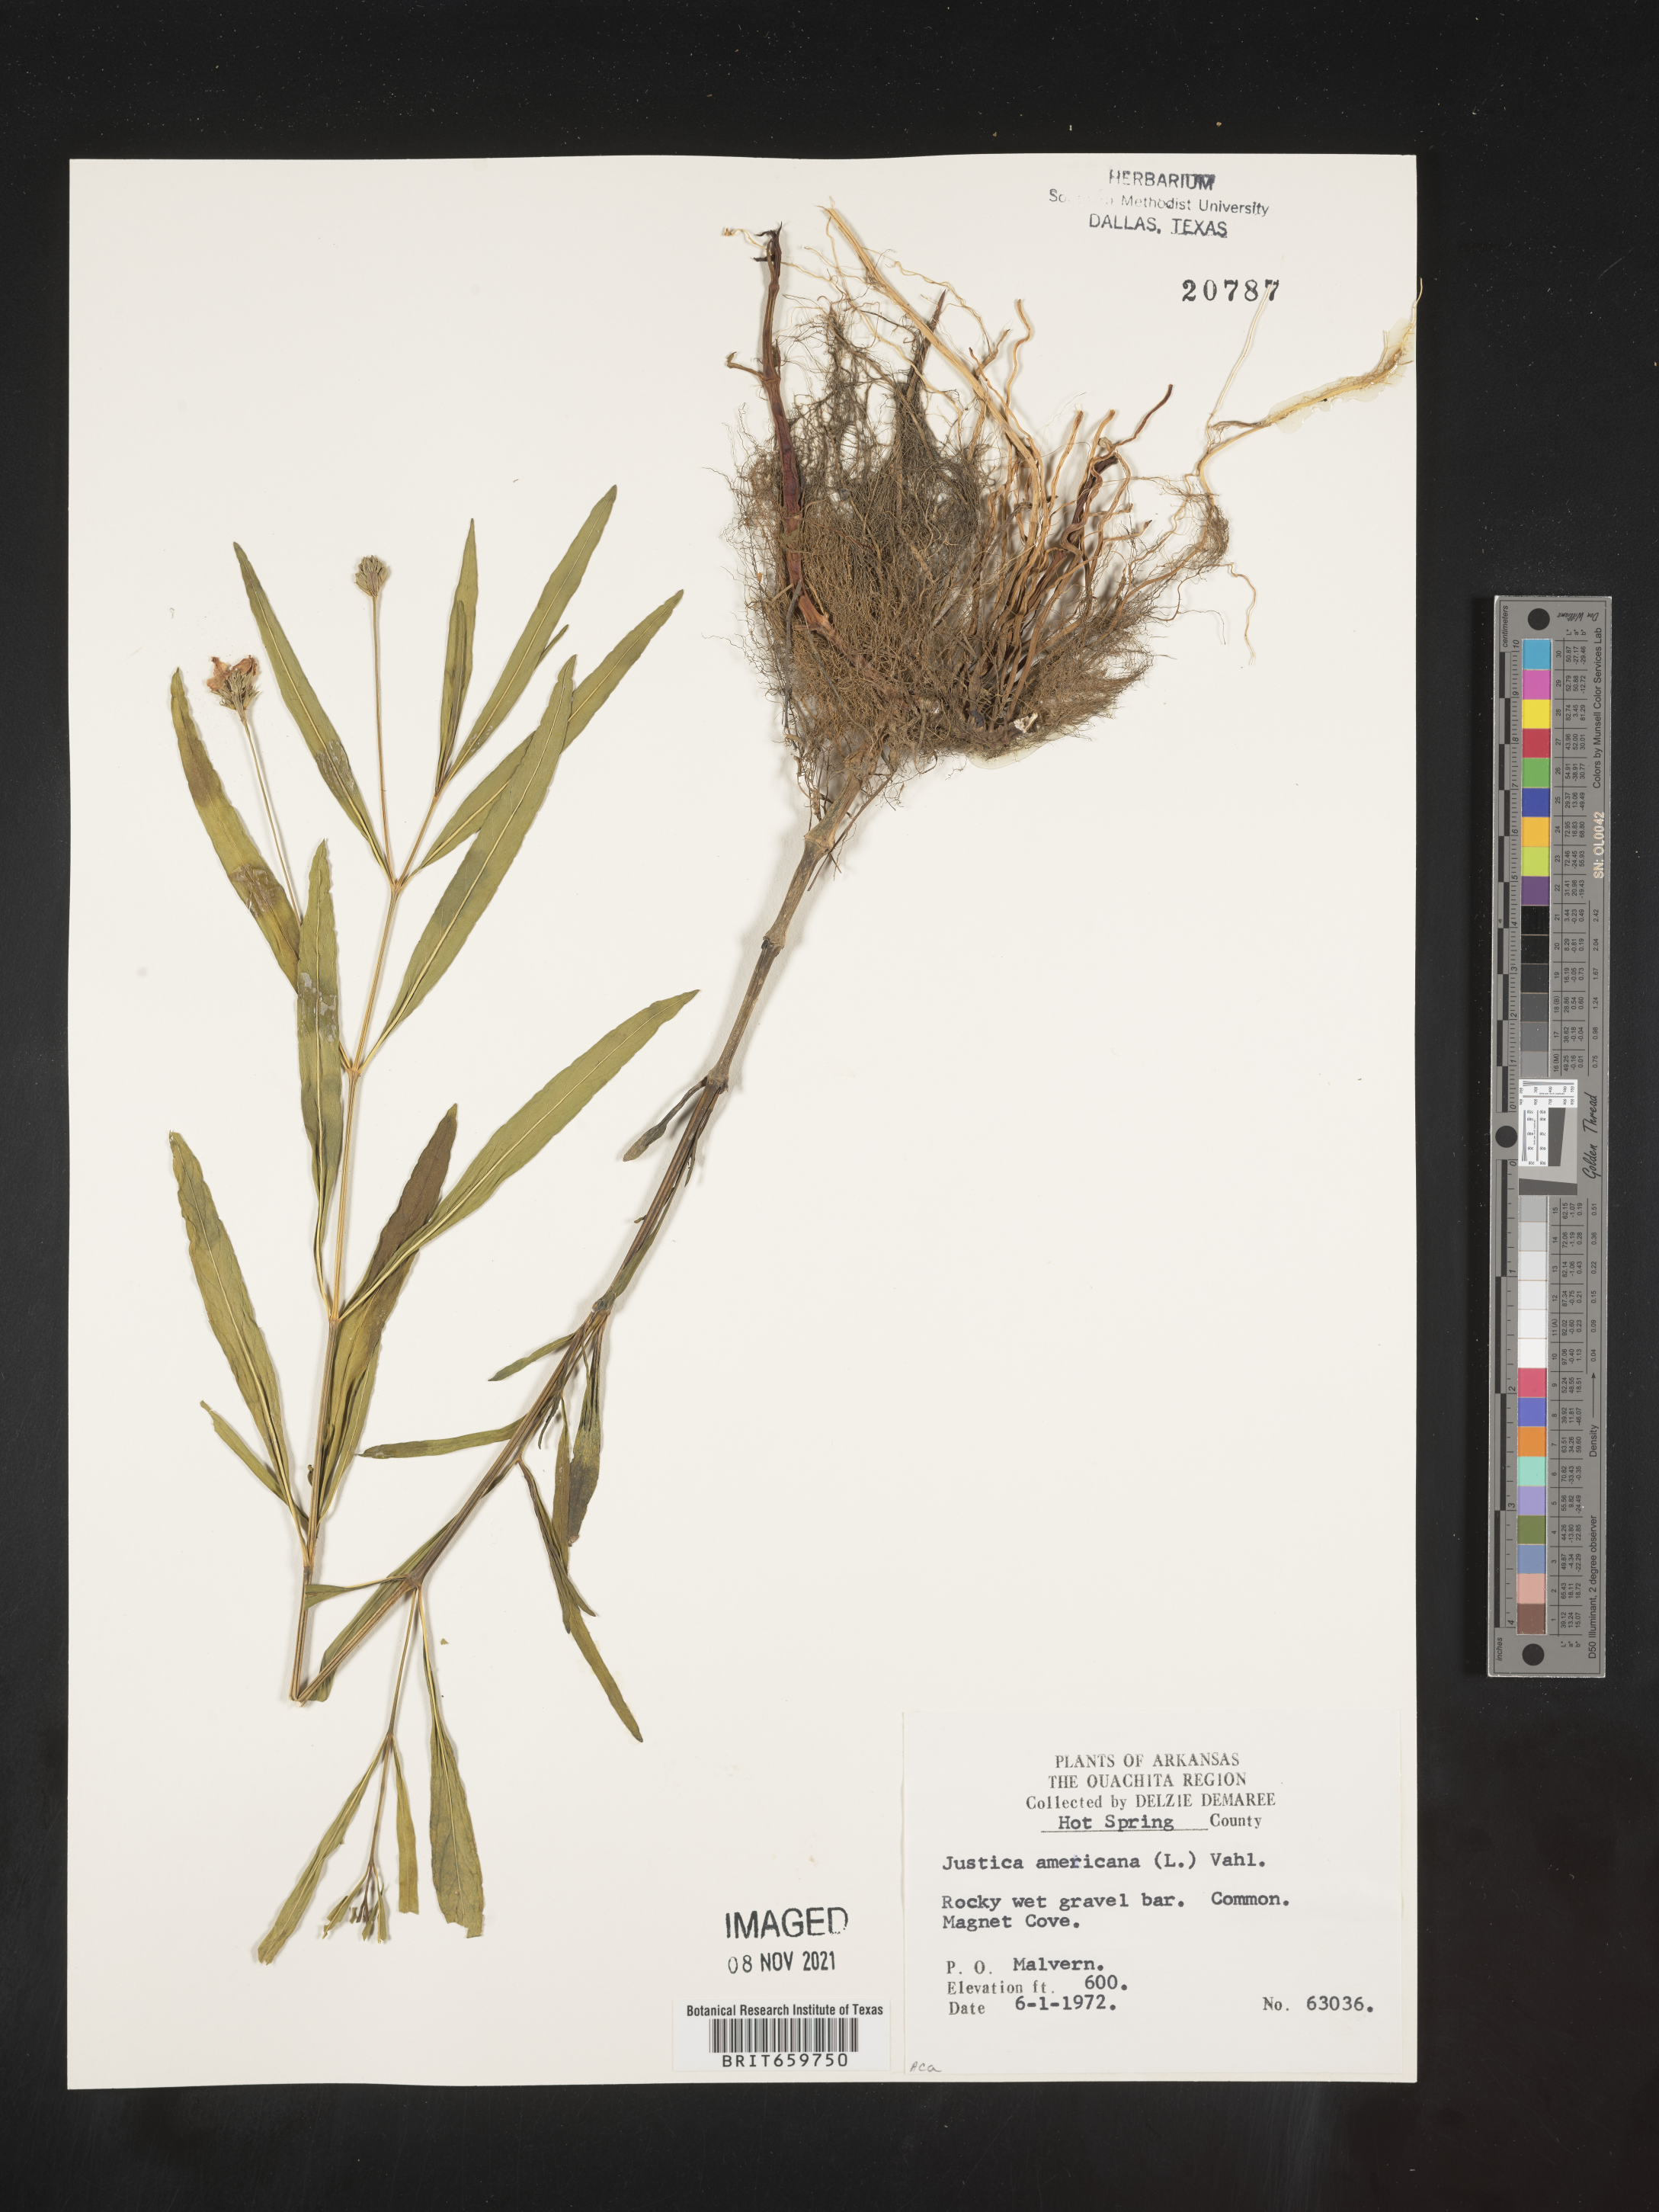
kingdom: Plantae
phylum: Tracheophyta
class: Magnoliopsida
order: Lamiales
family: Acanthaceae
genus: Dianthera
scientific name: Dianthera americana
